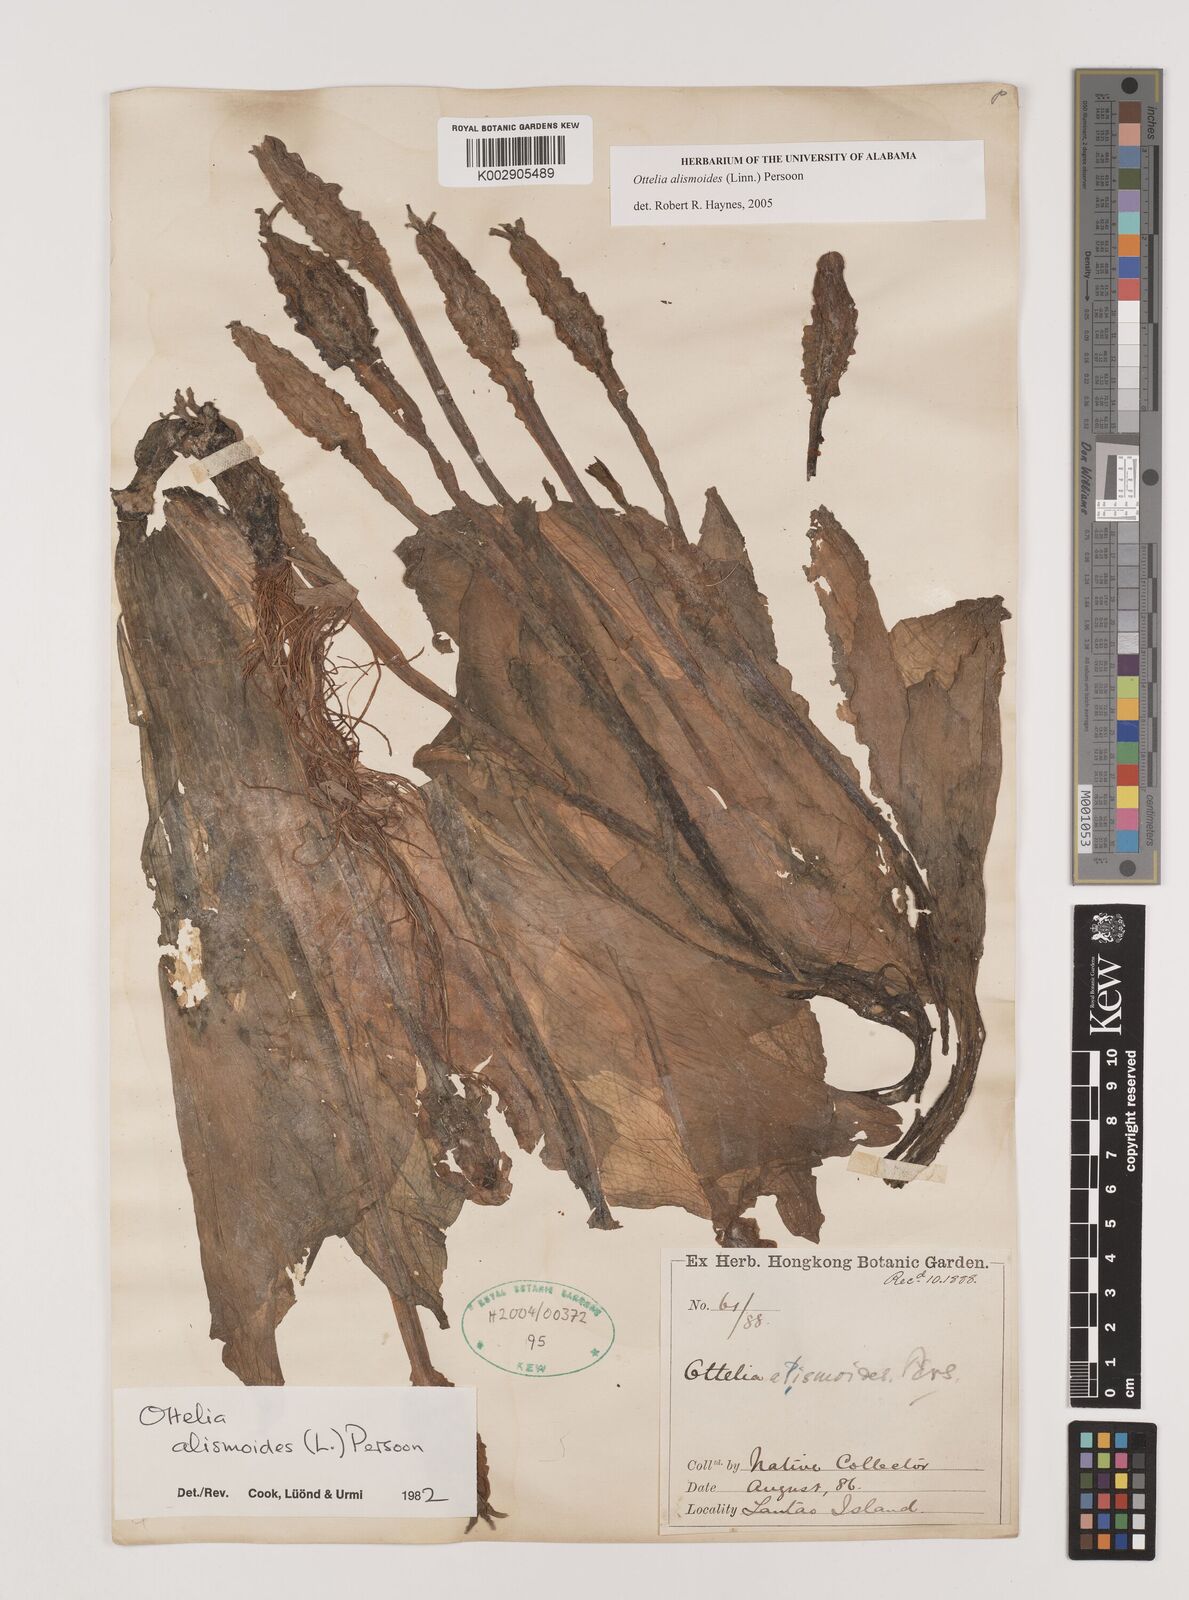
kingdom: Plantae
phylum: Tracheophyta
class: Liliopsida
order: Alismatales
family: Hydrocharitaceae
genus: Ottelia
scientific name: Ottelia alismoides
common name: Duck-lettuce
